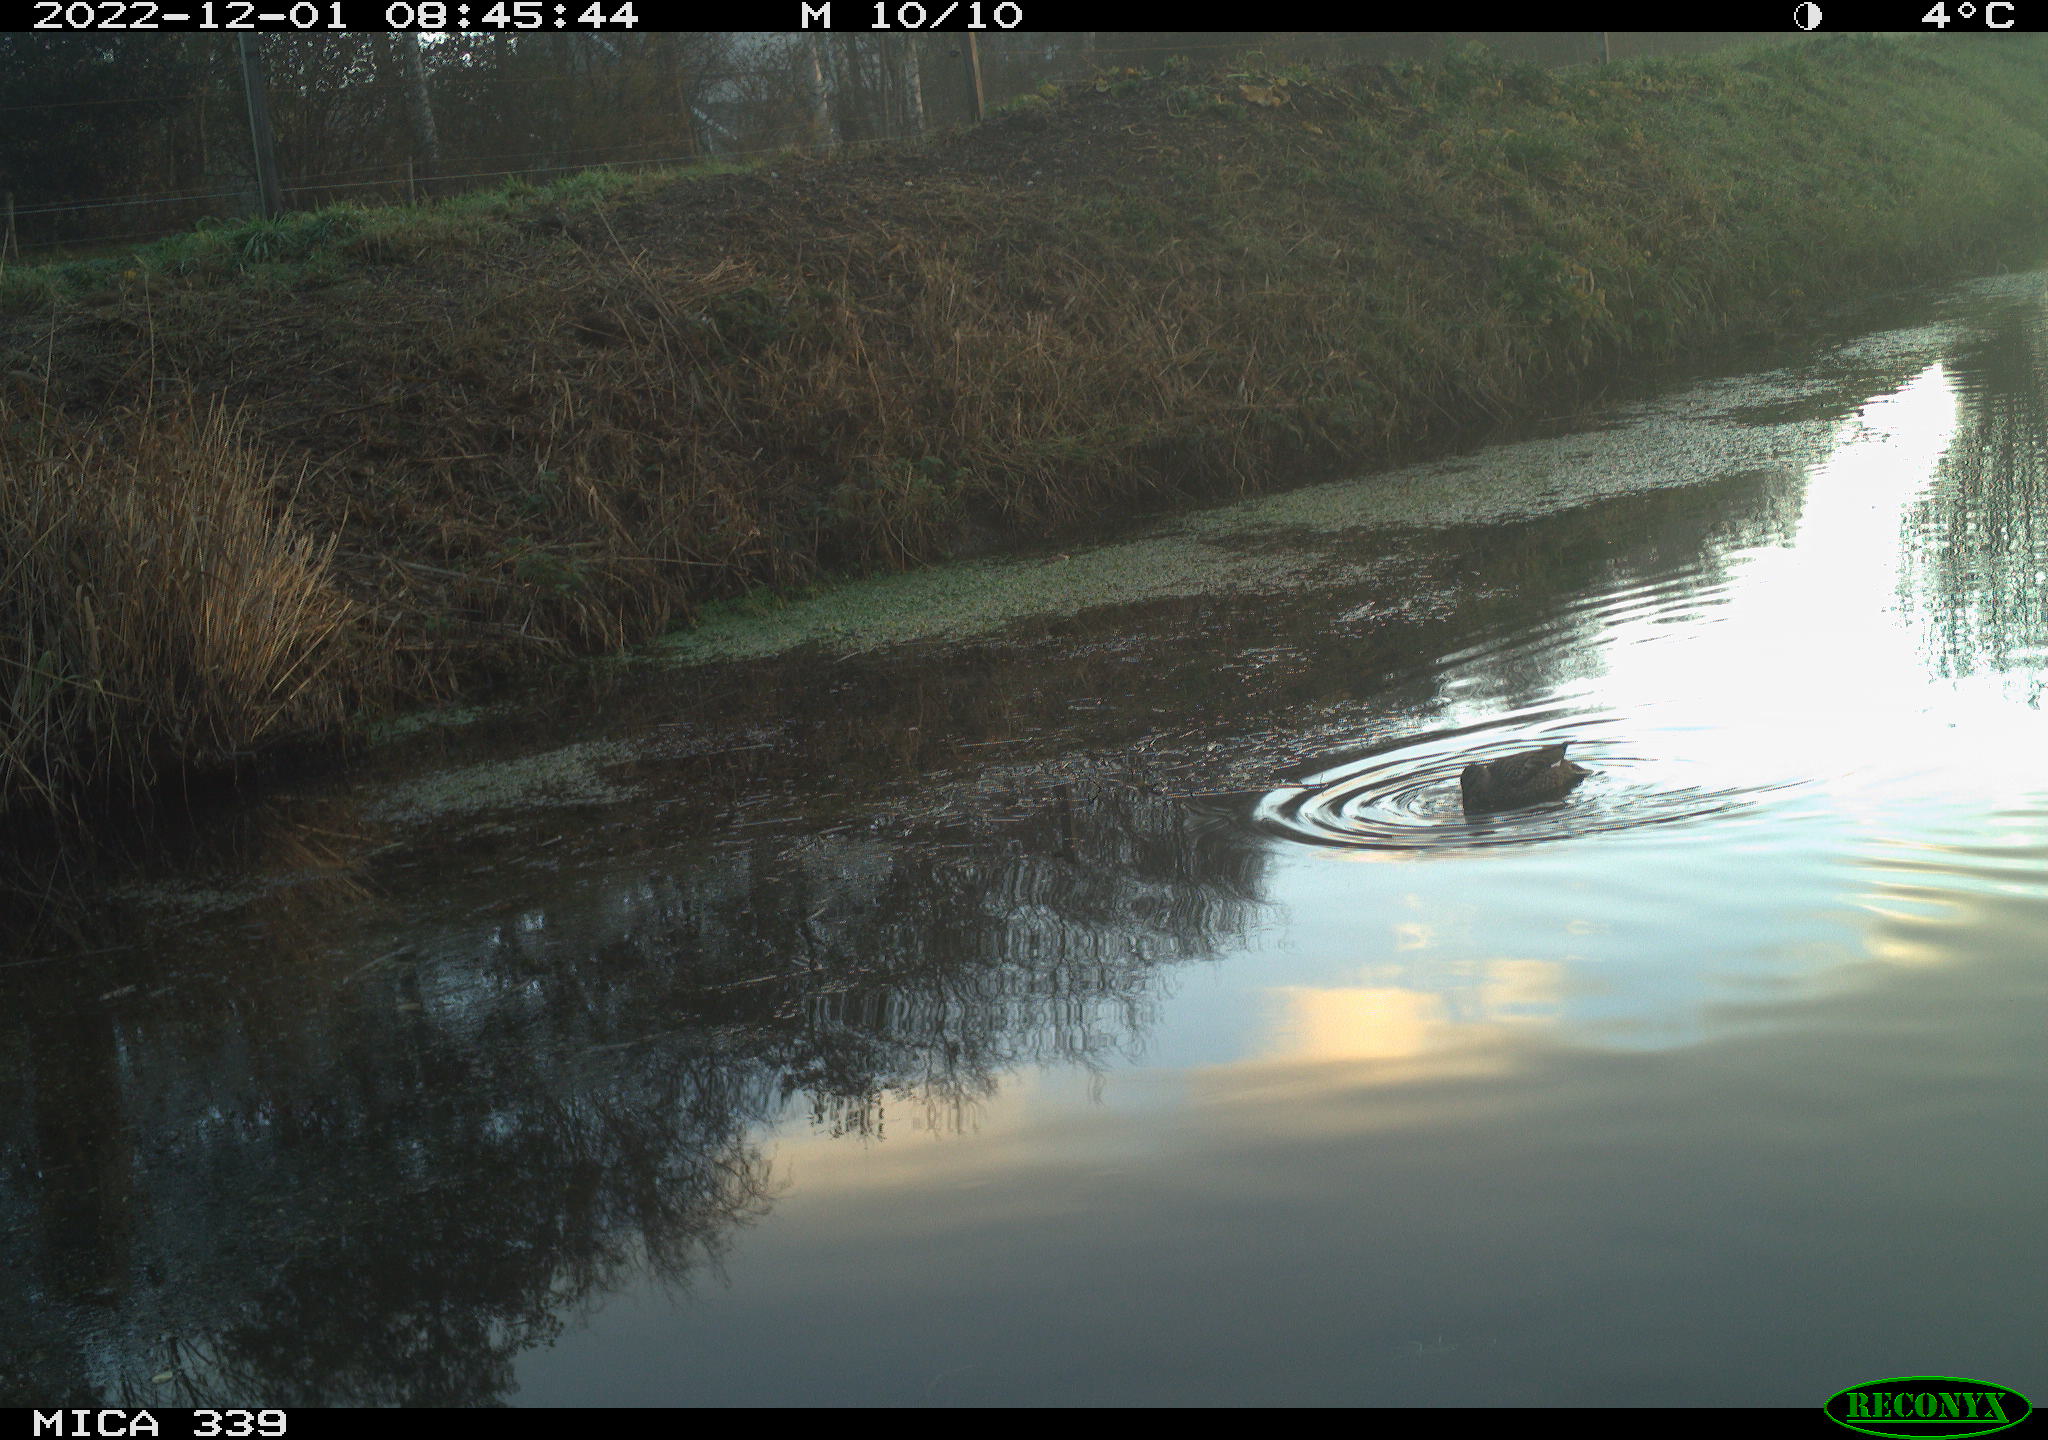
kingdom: Animalia
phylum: Chordata
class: Aves
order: Anseriformes
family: Anatidae
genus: Anas
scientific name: Anas platyrhynchos
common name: Mallard
